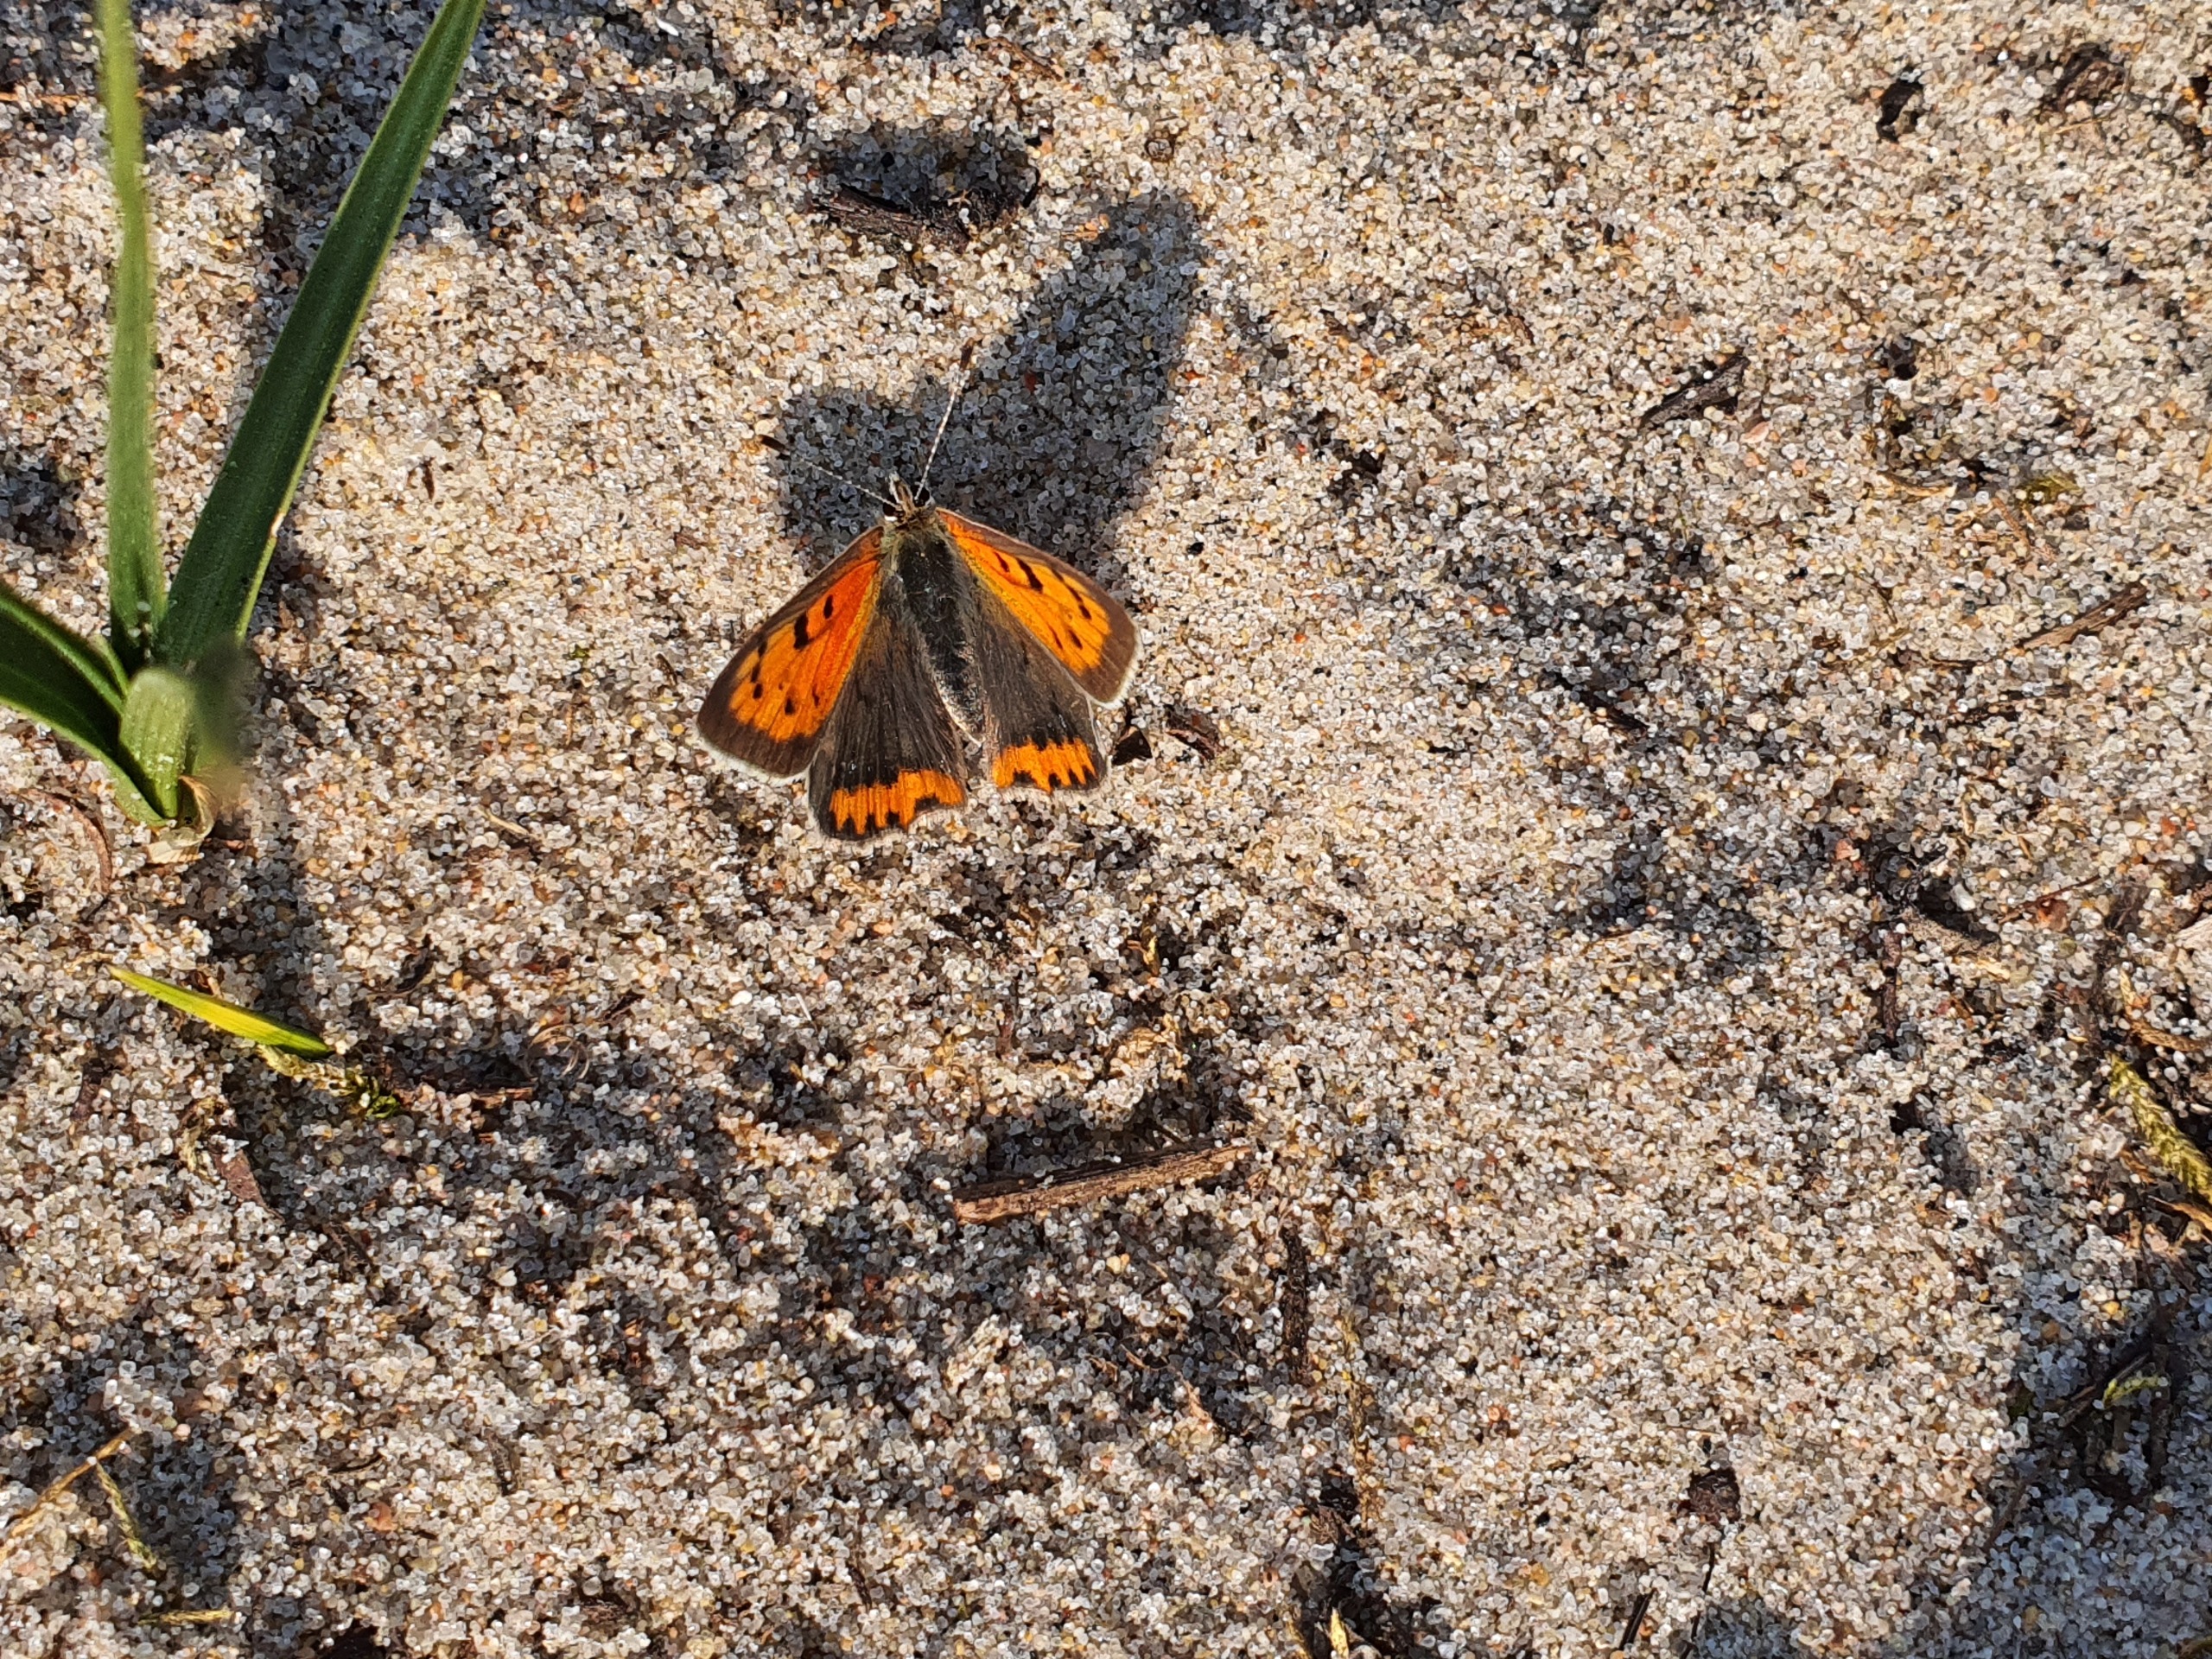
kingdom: Animalia
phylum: Arthropoda
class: Insecta
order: Lepidoptera
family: Lycaenidae
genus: Lycaena
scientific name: Lycaena phlaeas
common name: Lille ildfugl
